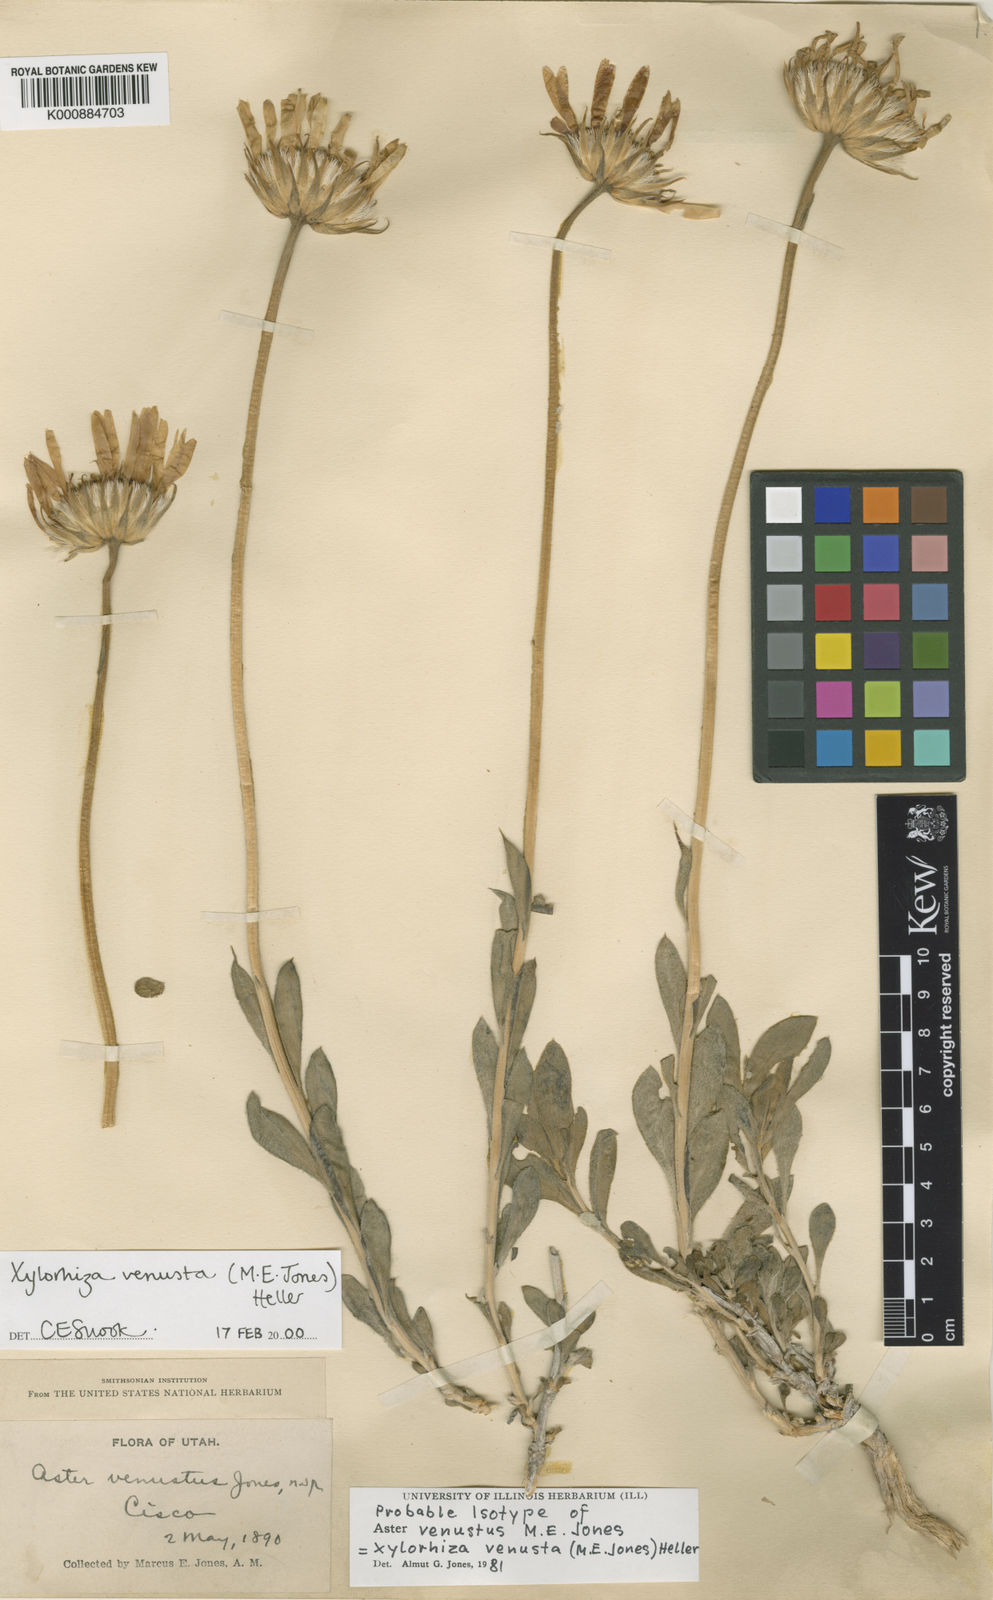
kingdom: Plantae
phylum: Tracheophyta
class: Magnoliopsida
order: Asterales
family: Asteraceae
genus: Xylorhiza
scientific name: Xylorhiza
